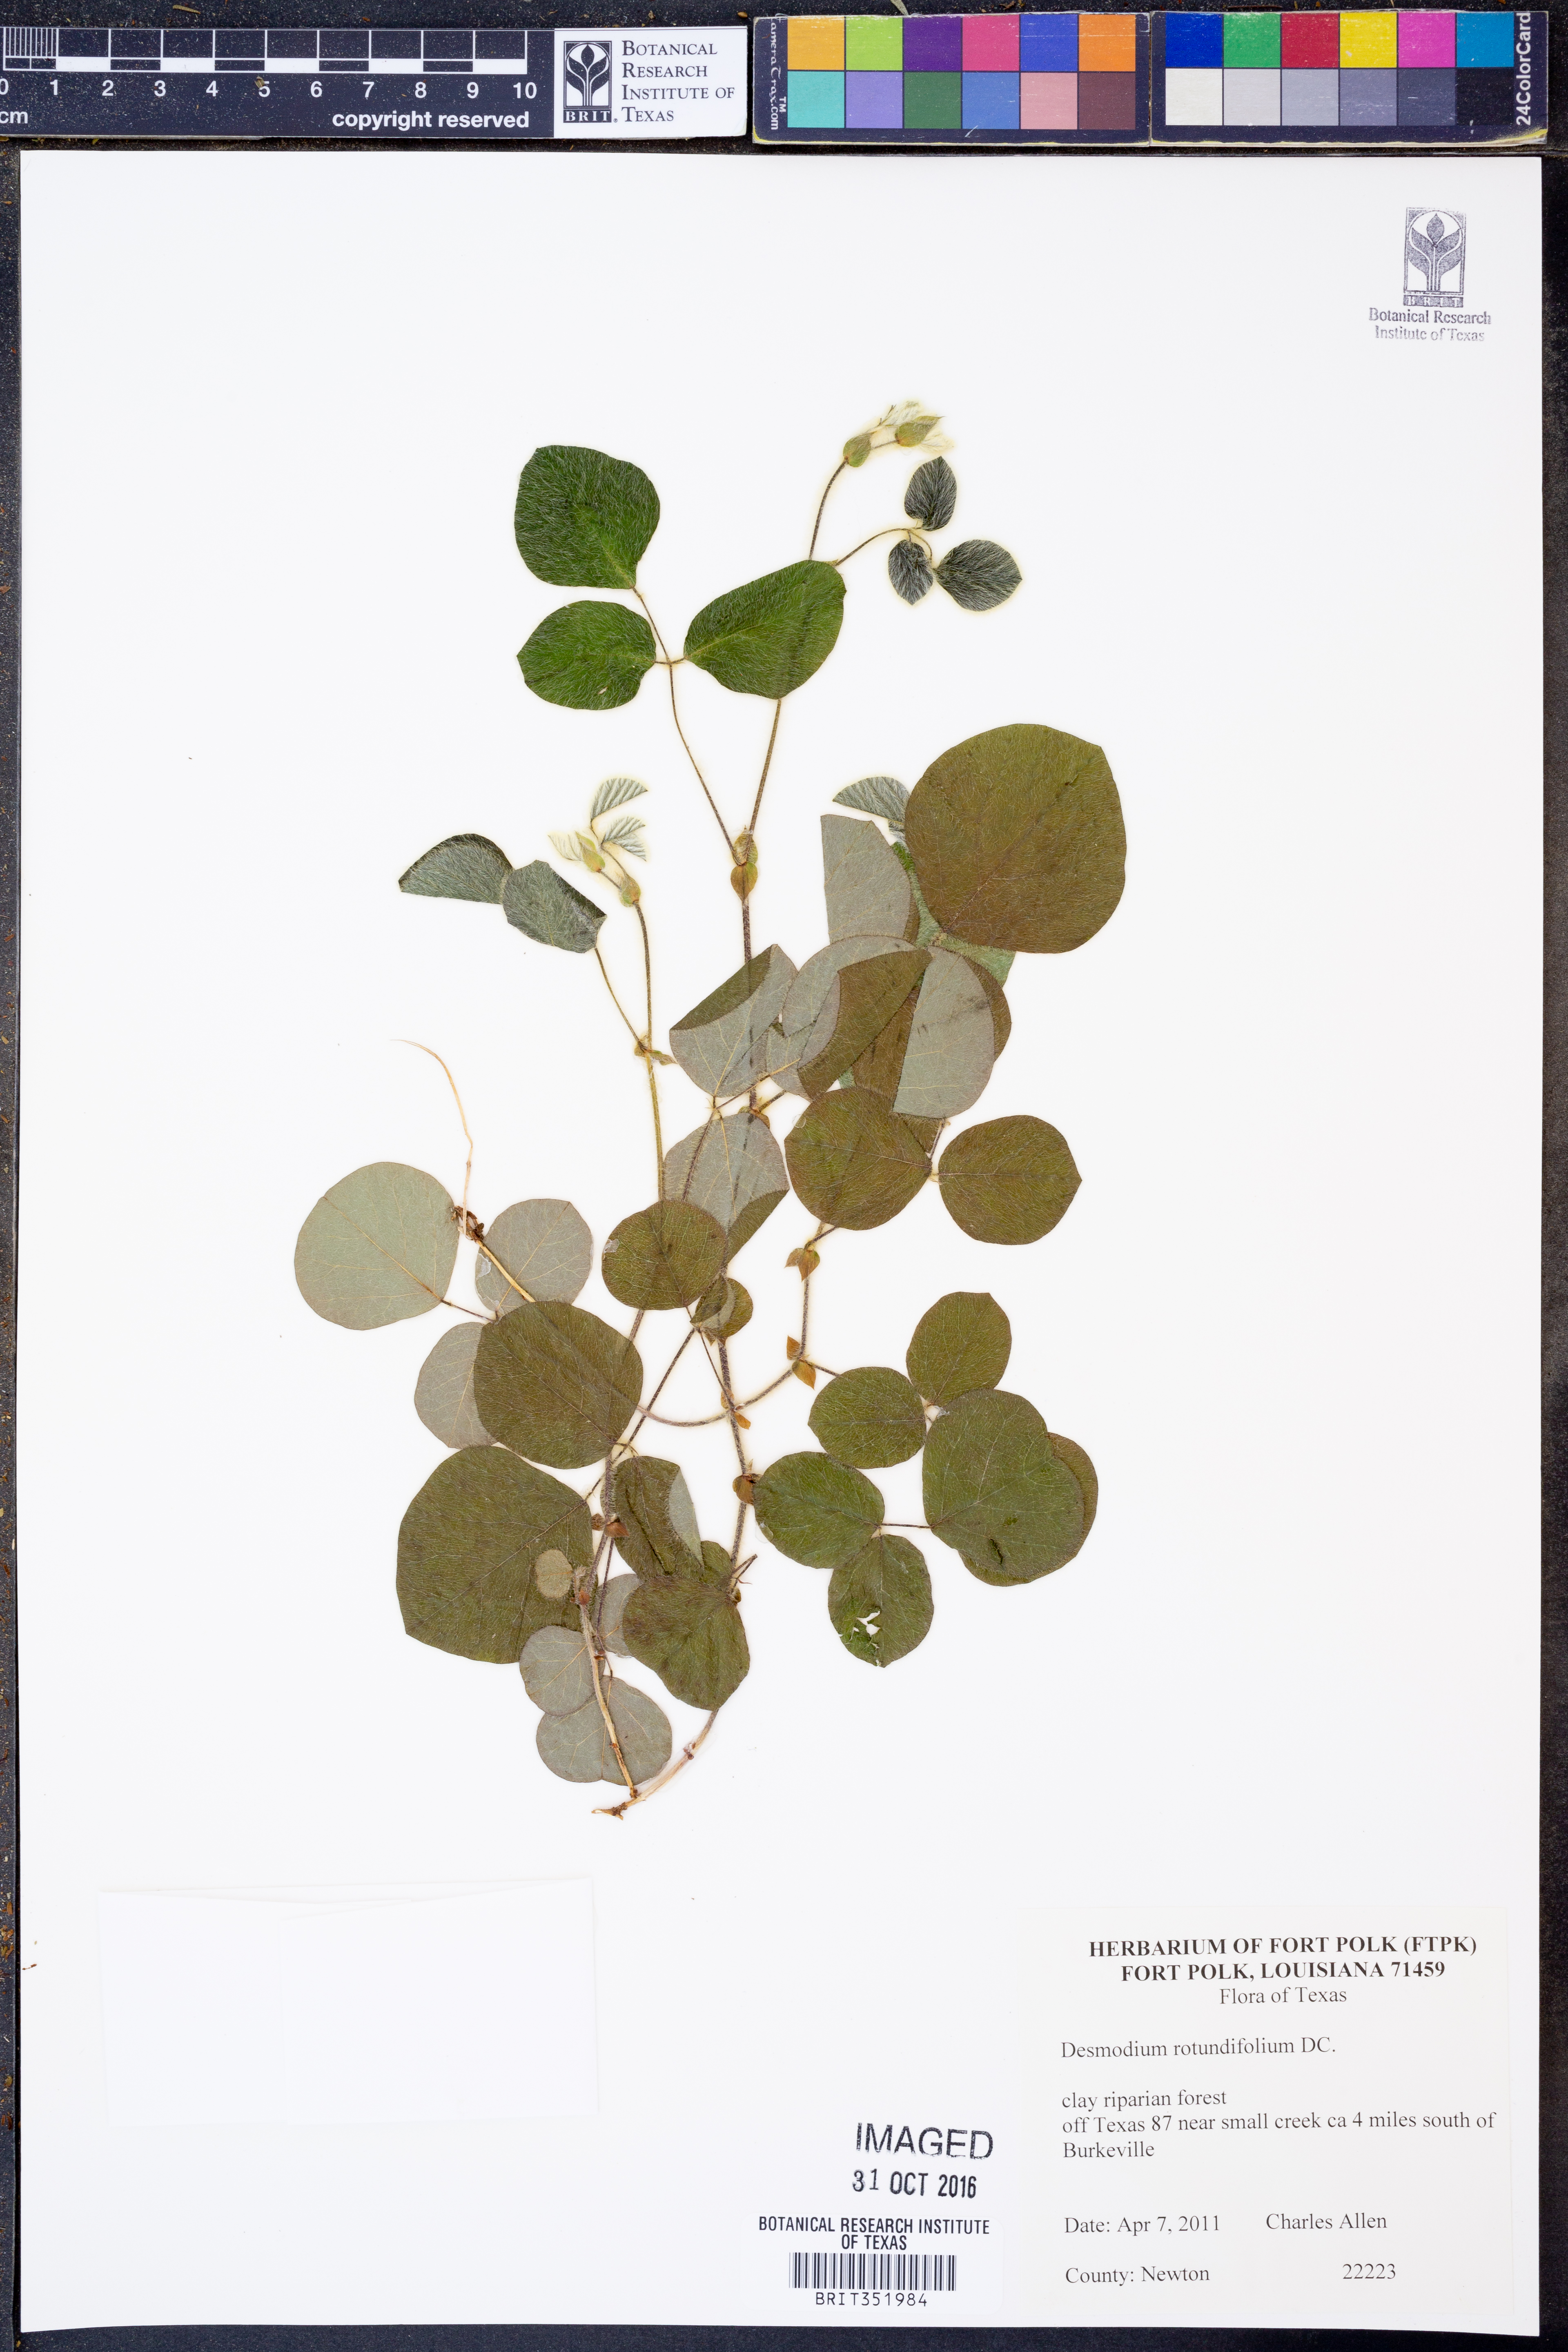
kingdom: Plantae
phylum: Tracheophyta
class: Magnoliopsida
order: Fabales
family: Fabaceae
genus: Desmodium
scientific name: Desmodium rotundifolium
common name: Dollarleaf
